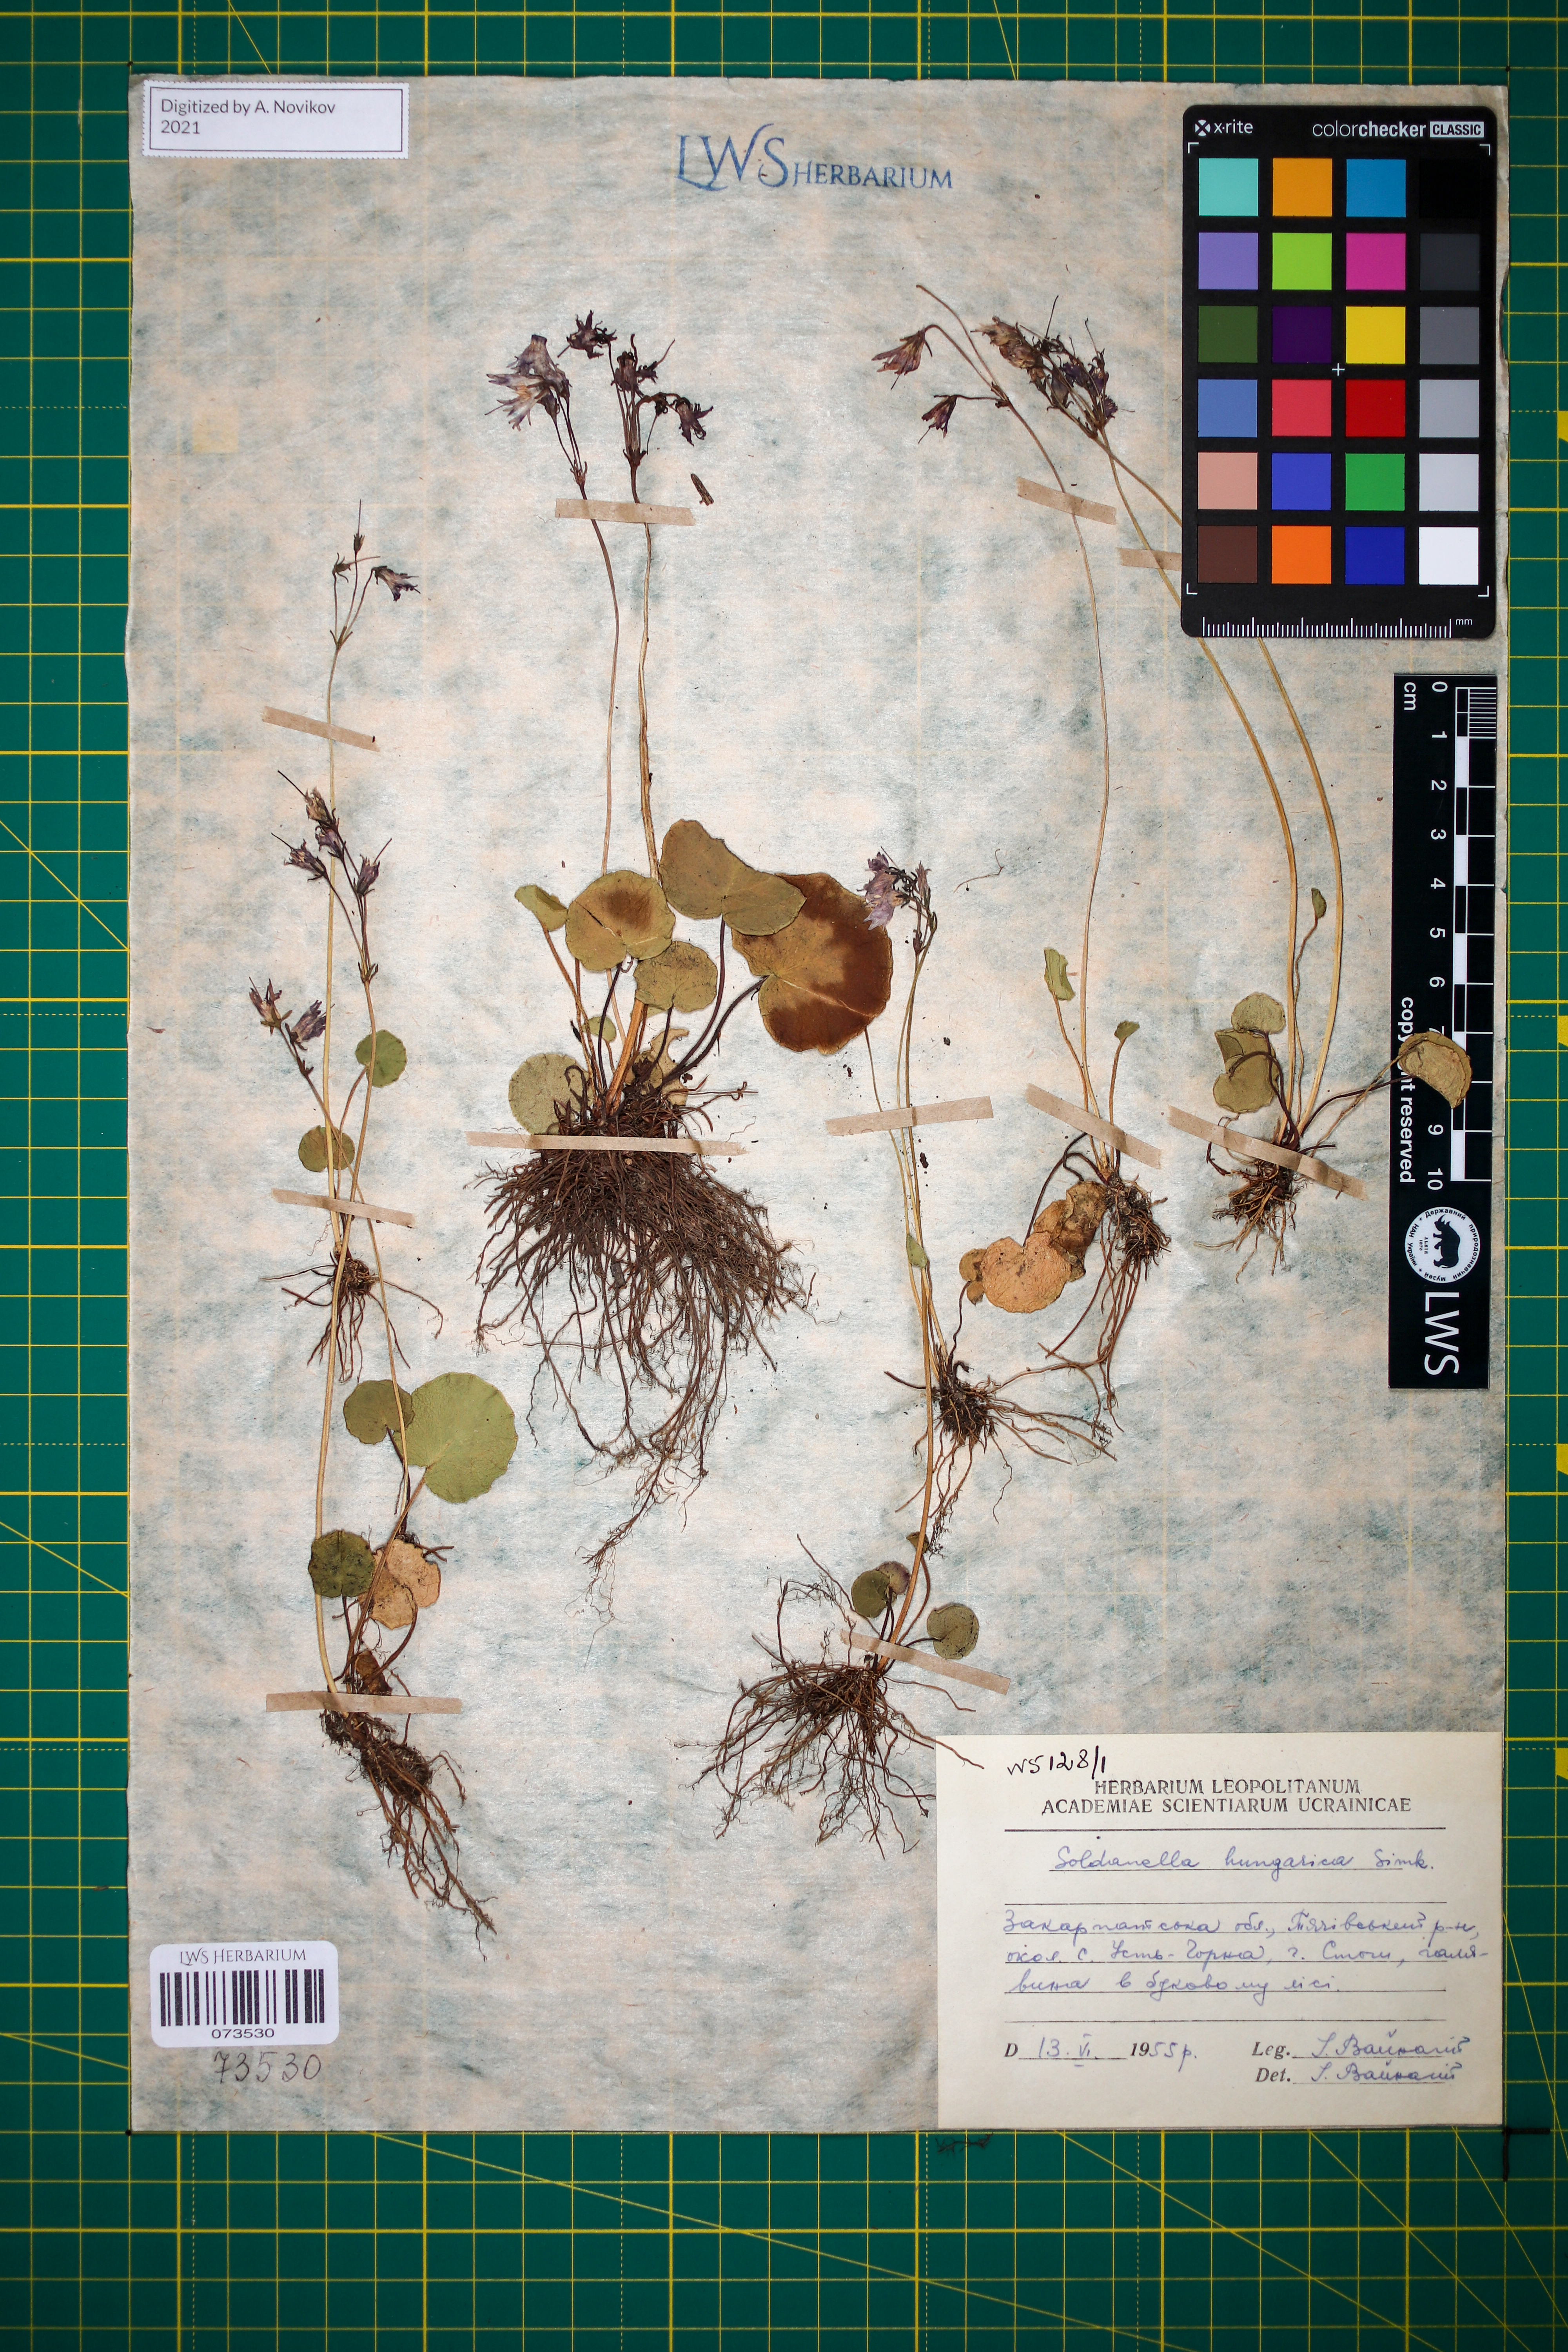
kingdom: Plantae
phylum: Tracheophyta
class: Magnoliopsida
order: Ericales
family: Primulaceae
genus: Soldanella
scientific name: Soldanella hungarica
